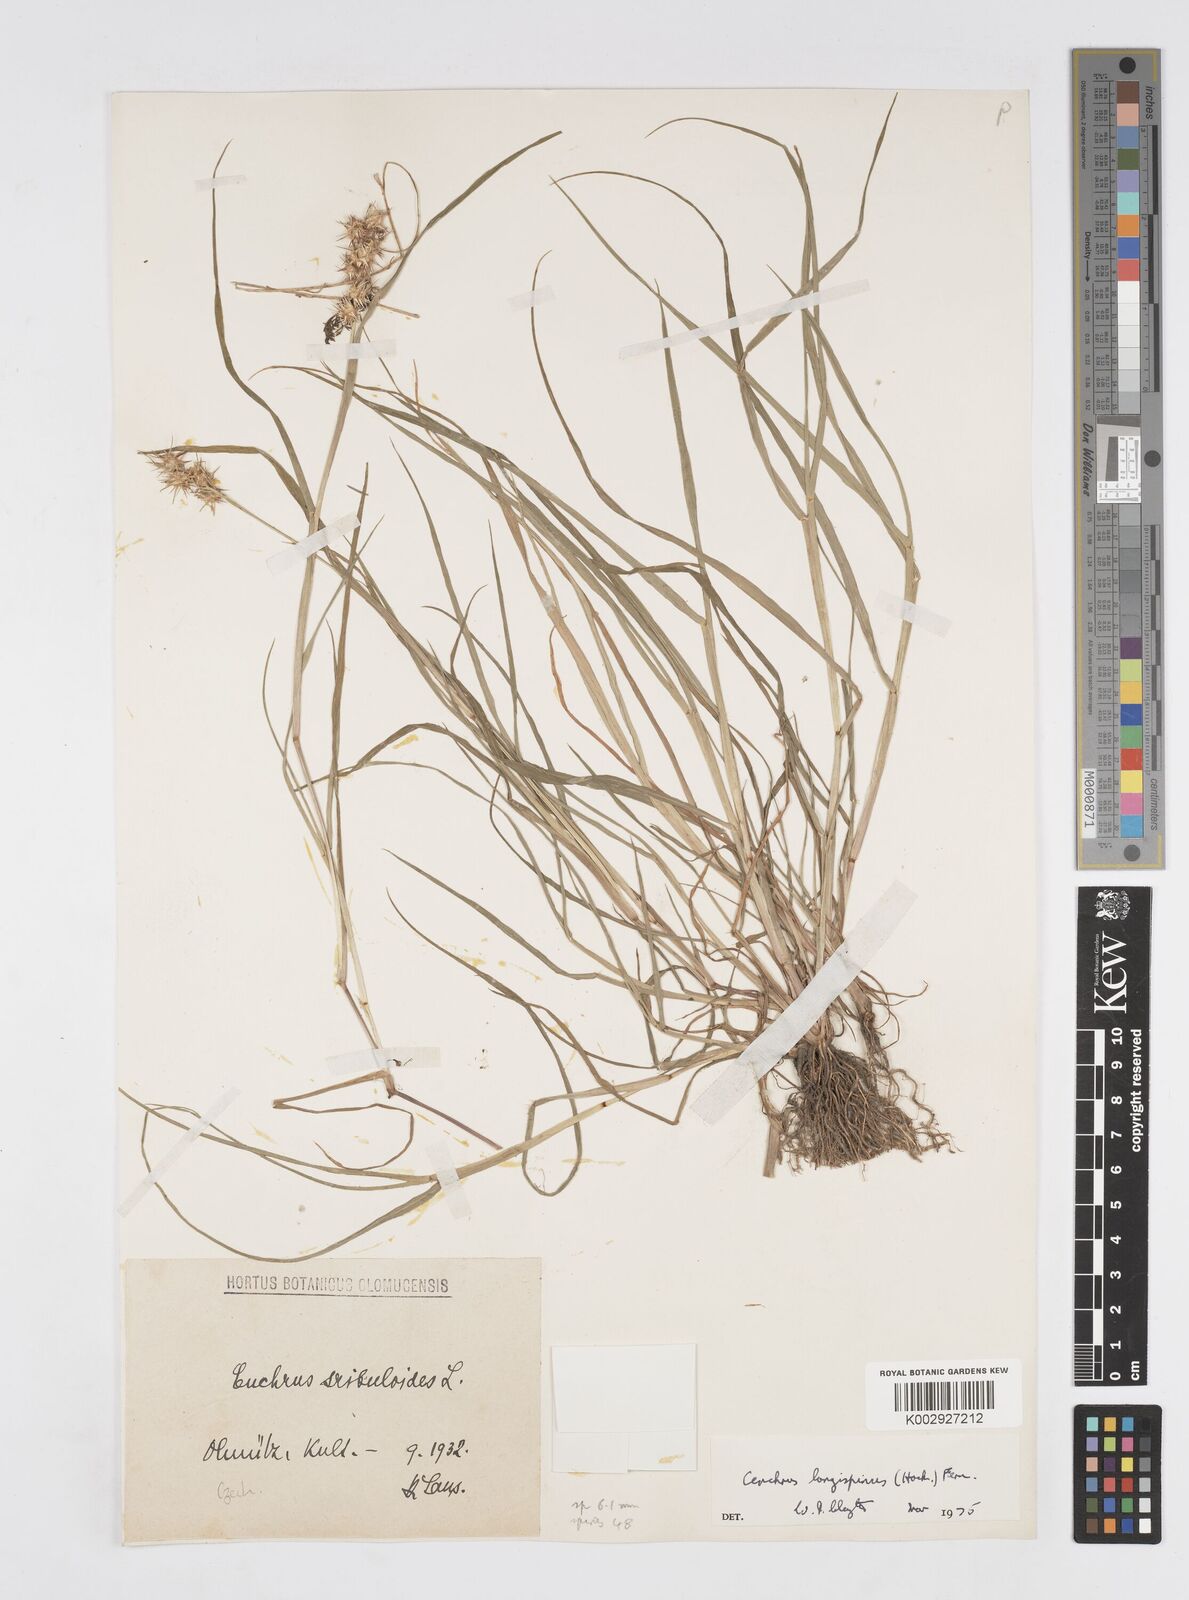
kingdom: Plantae
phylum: Tracheophyta
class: Liliopsida
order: Poales
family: Poaceae
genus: Cenchrus
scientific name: Cenchrus longispinus
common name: Mat sandbur
